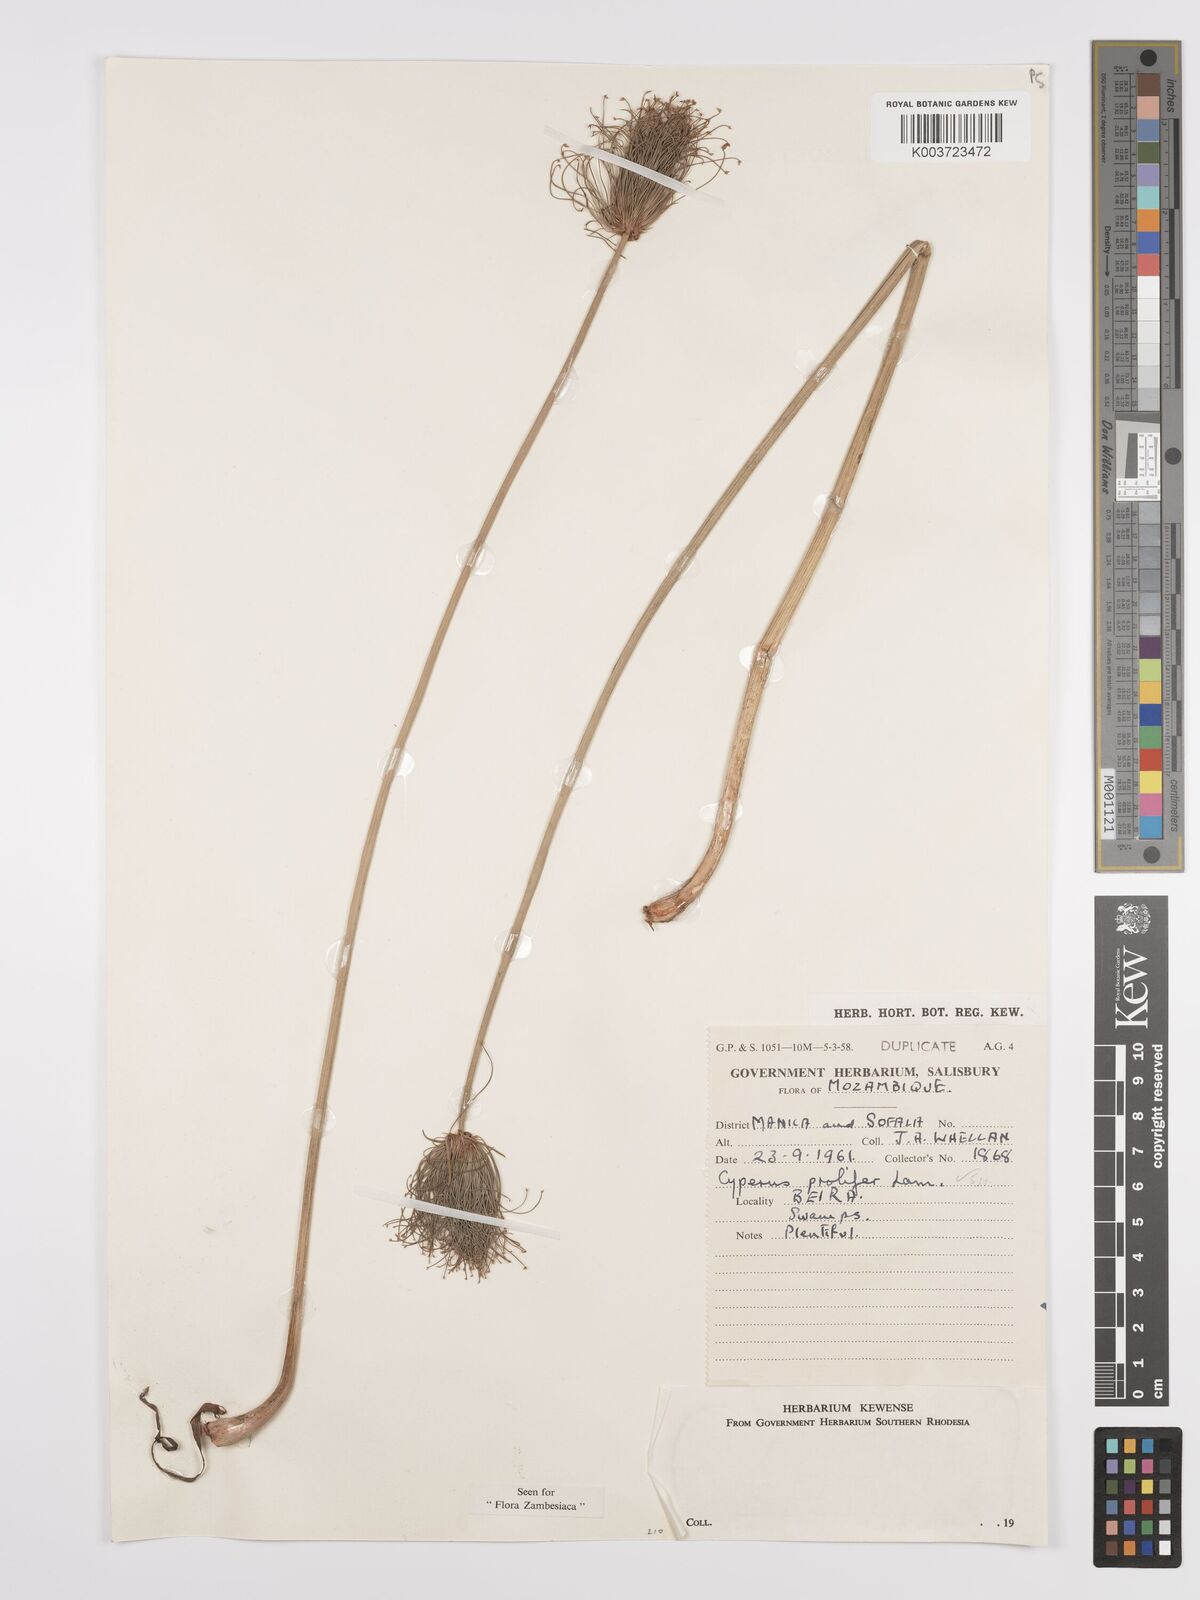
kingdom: Plantae
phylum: Tracheophyta
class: Liliopsida
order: Poales
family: Cyperaceae
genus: Cyperus
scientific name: Cyperus prolifer
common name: Miniature flatsedge
